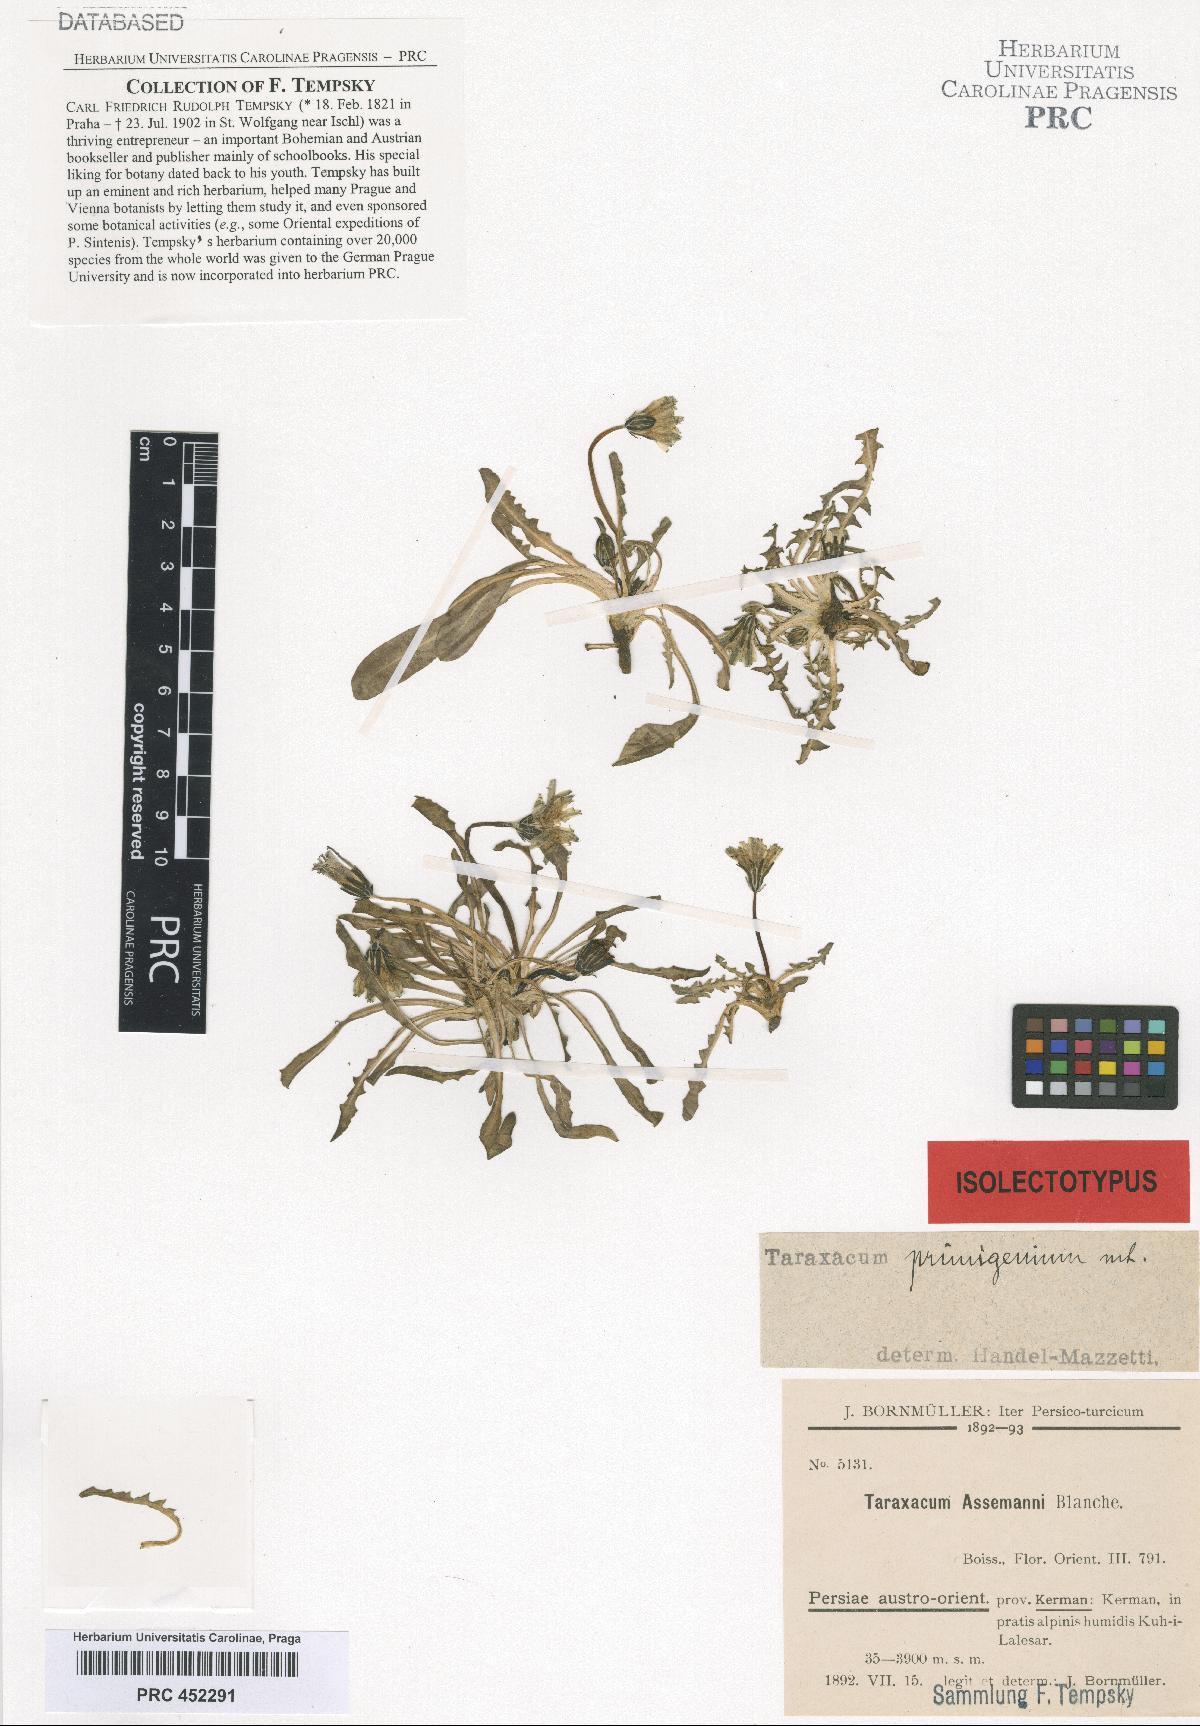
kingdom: Plantae
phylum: Tracheophyta
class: Magnoliopsida
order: Asterales
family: Asteraceae
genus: Taraxacum
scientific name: Taraxacum assemanii
